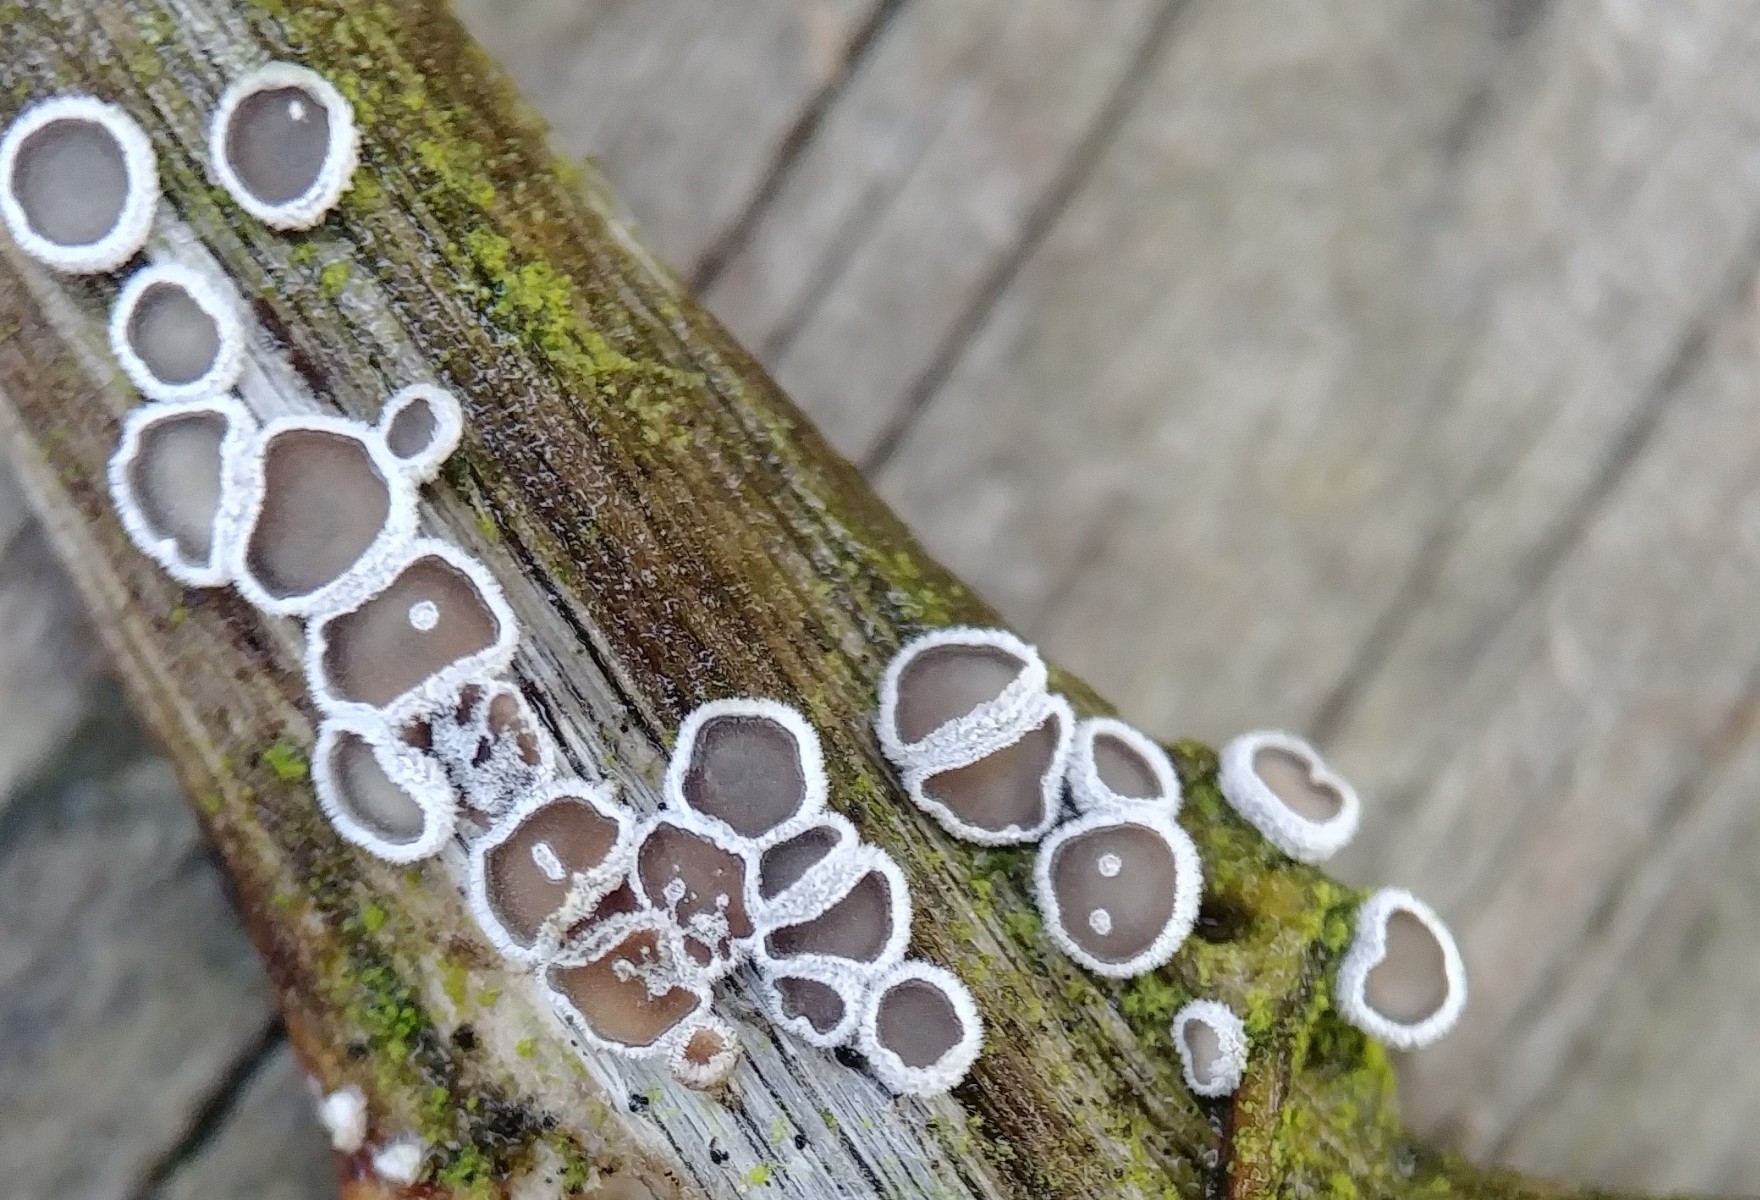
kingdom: Fungi
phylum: Basidiomycota
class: Agaricomycetes
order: Agaricales
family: Niaceae
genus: Lachnella
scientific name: Lachnella alboviolascens
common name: grå frynserede
